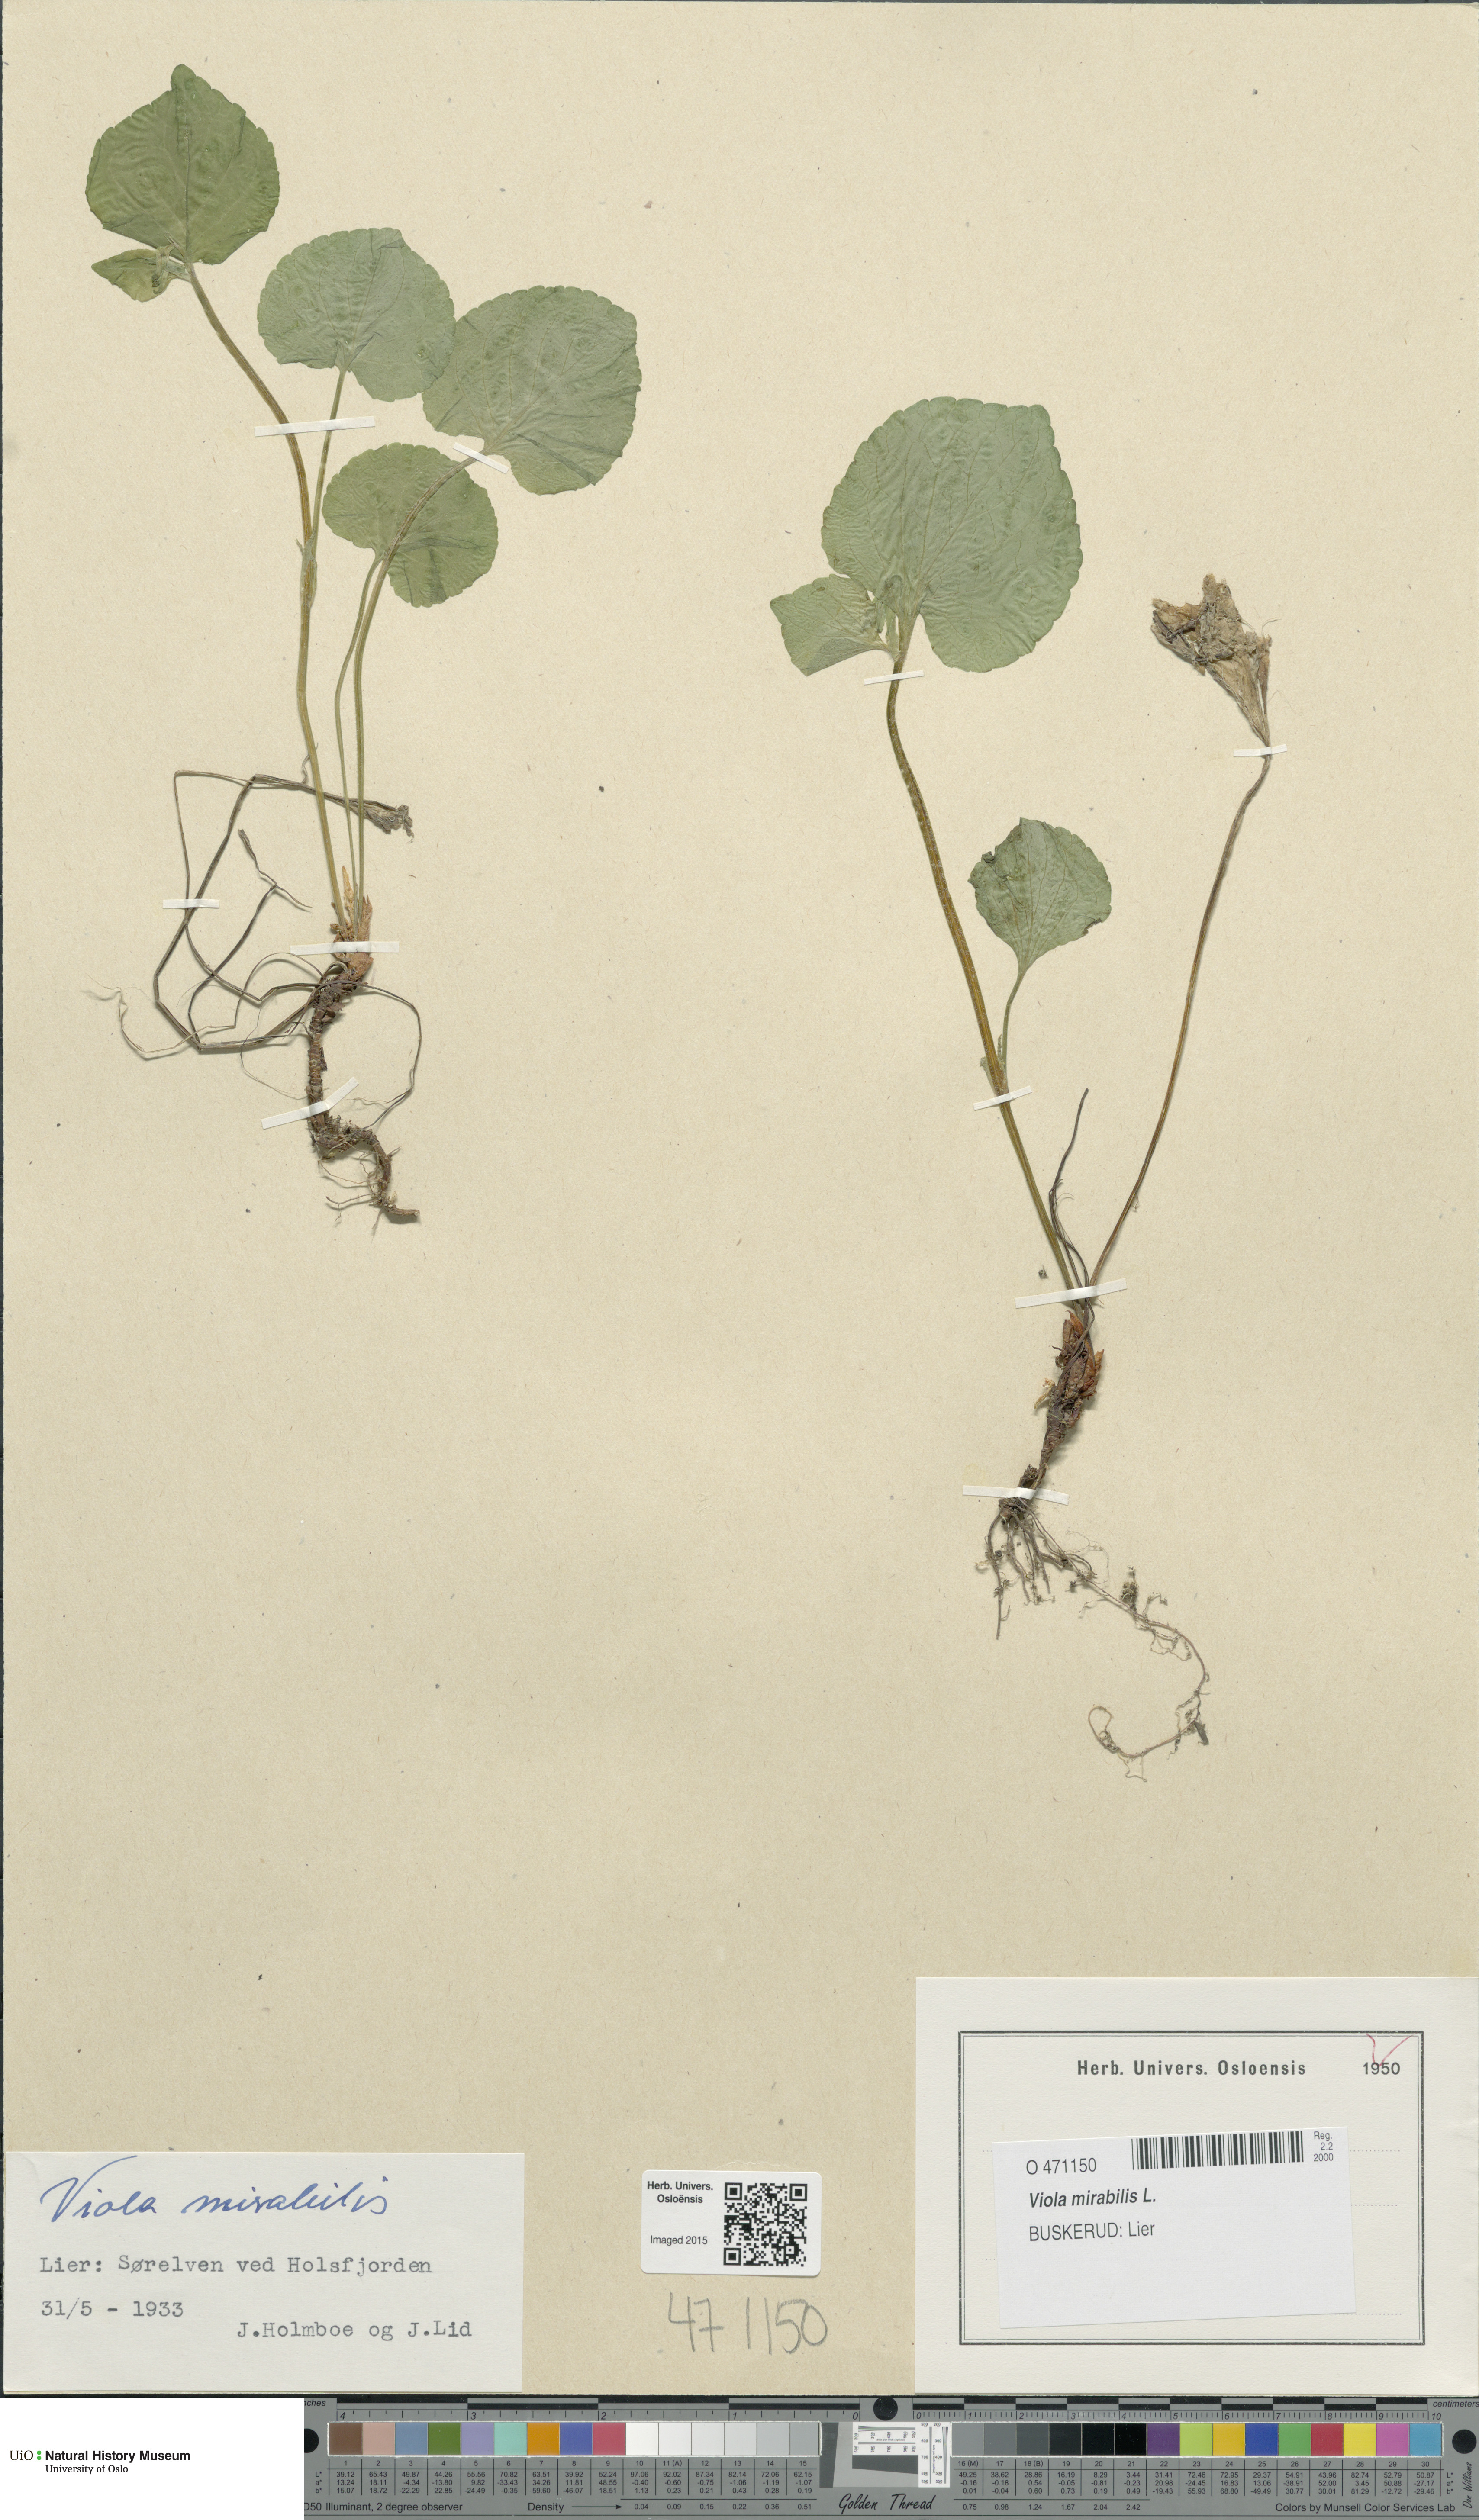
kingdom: Plantae
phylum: Tracheophyta
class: Magnoliopsida
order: Malpighiales
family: Violaceae
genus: Viola
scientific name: Viola mirabilis
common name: Wonder violet
